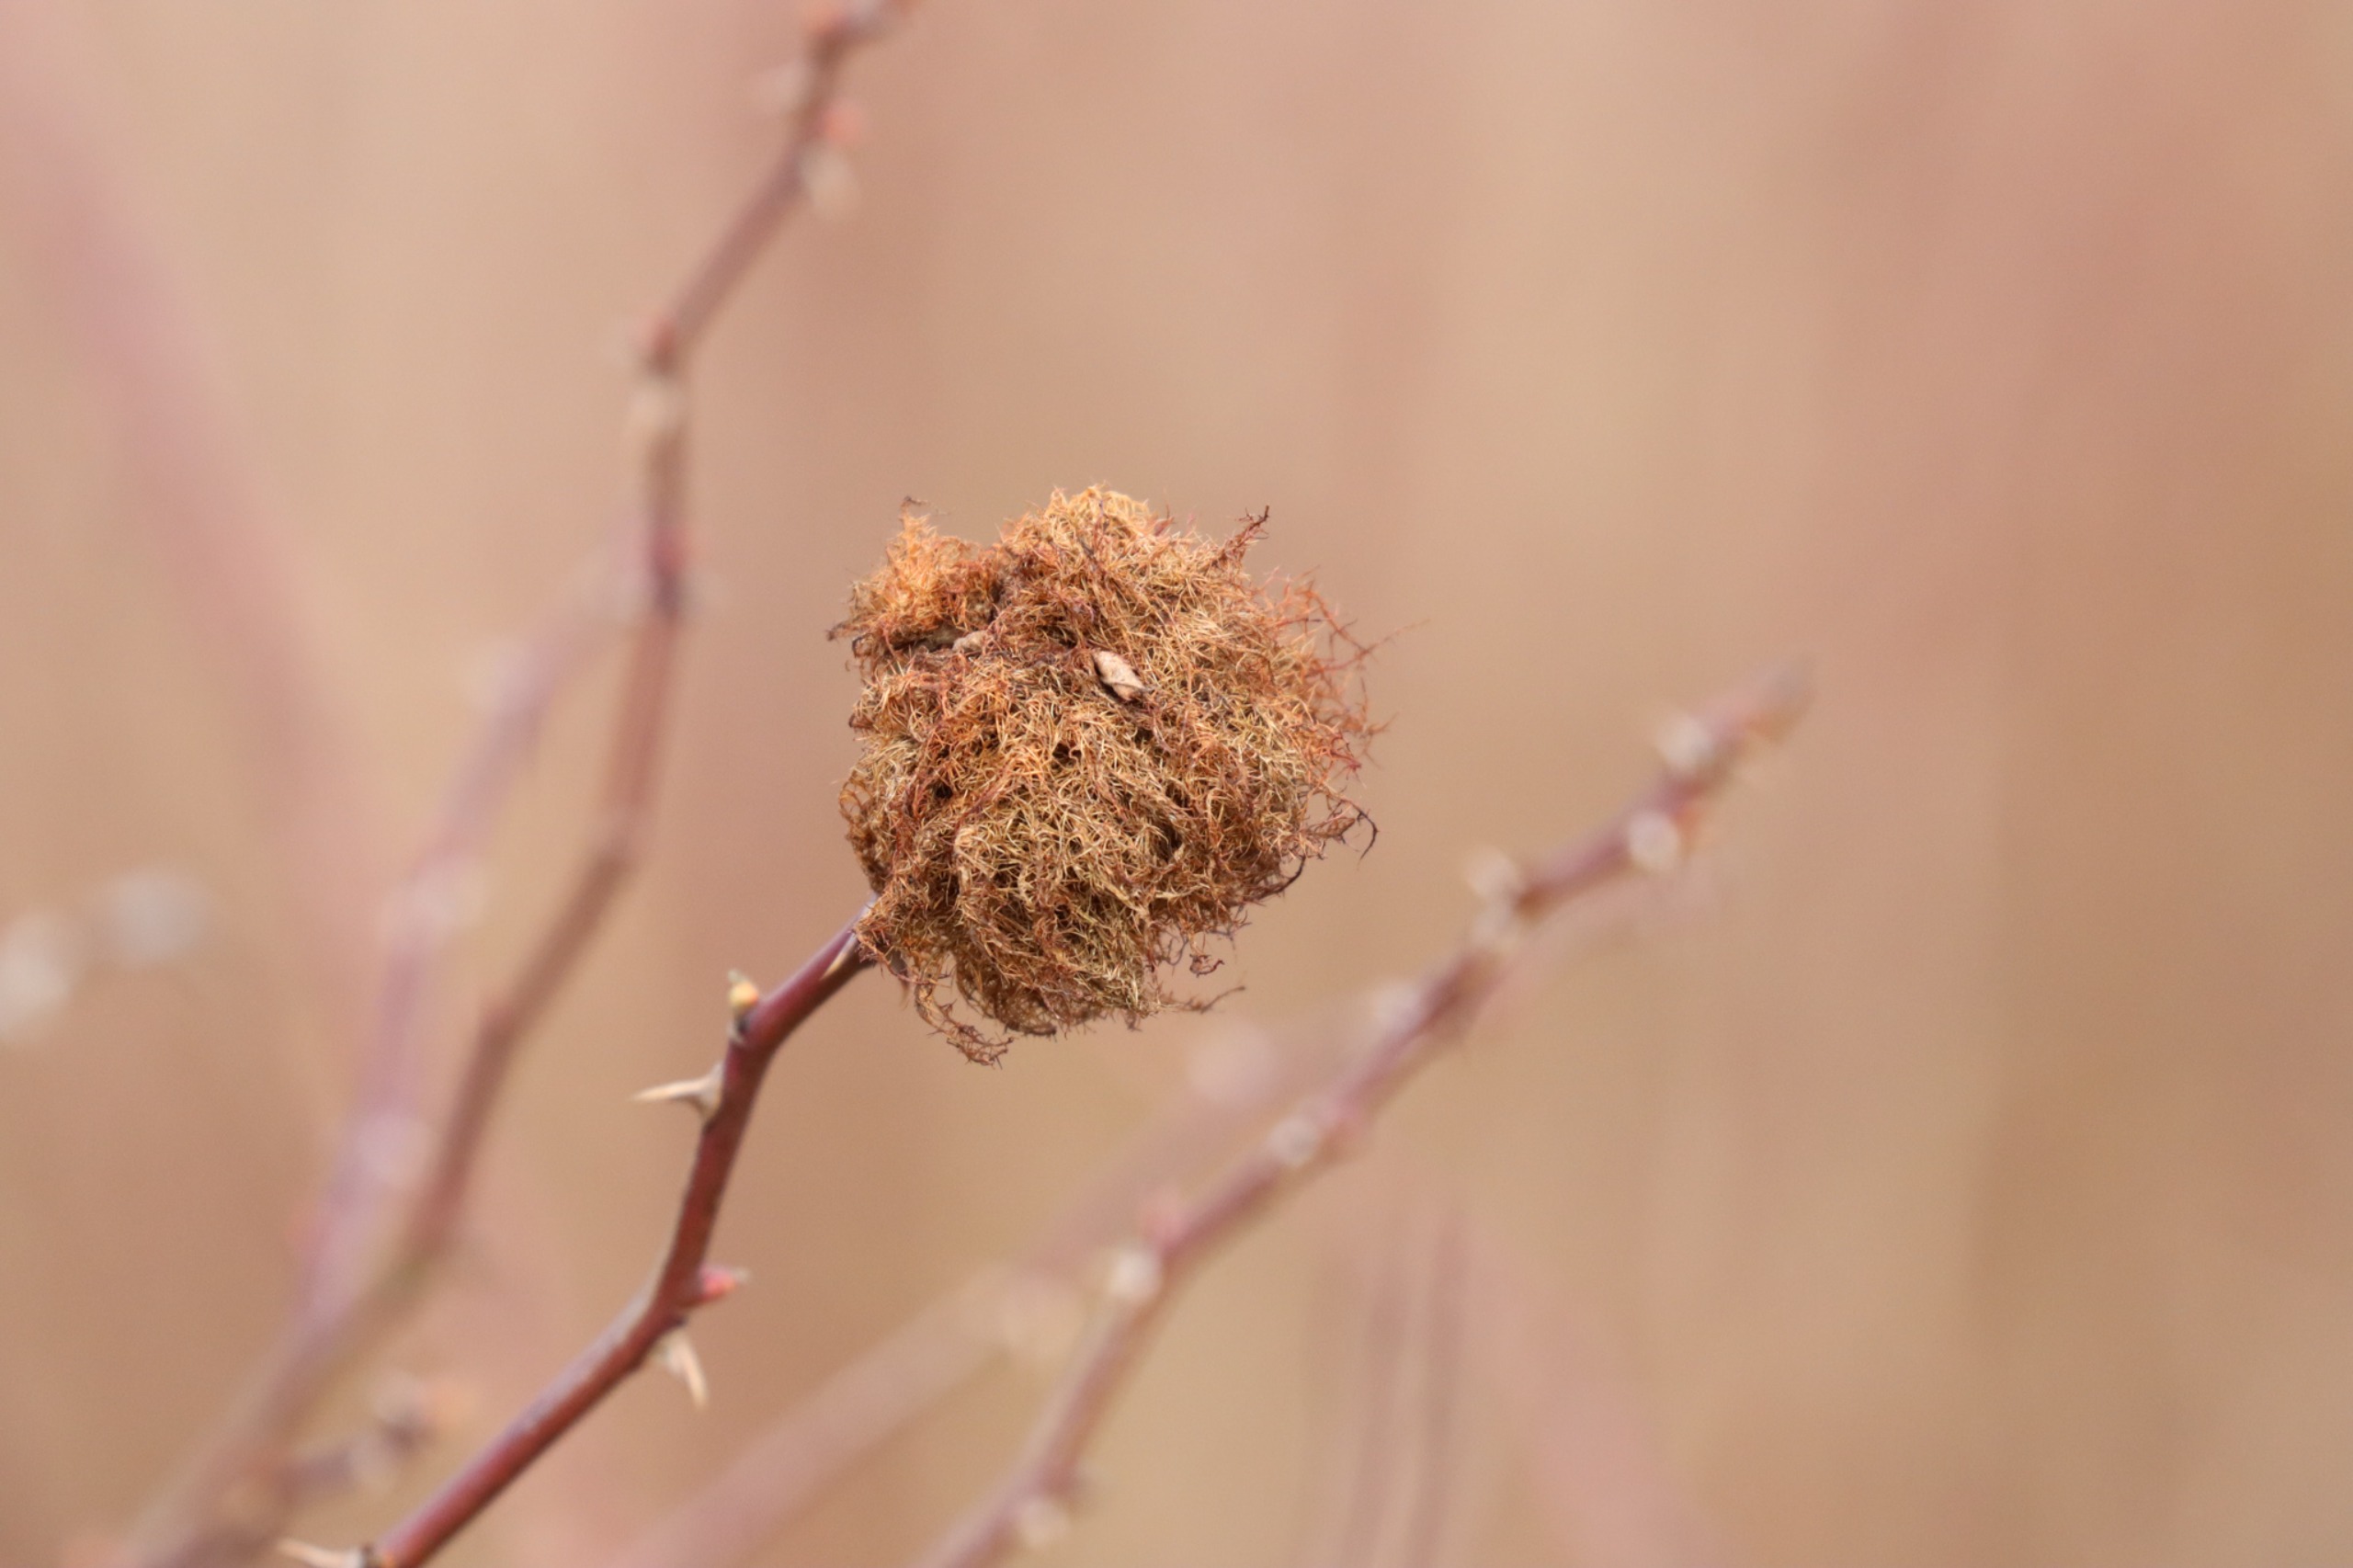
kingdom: Animalia
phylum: Arthropoda
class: Insecta
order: Hymenoptera
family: Cynipidae
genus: Diplolepis
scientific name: Diplolepis rosae
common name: Bedeguargalhveps
